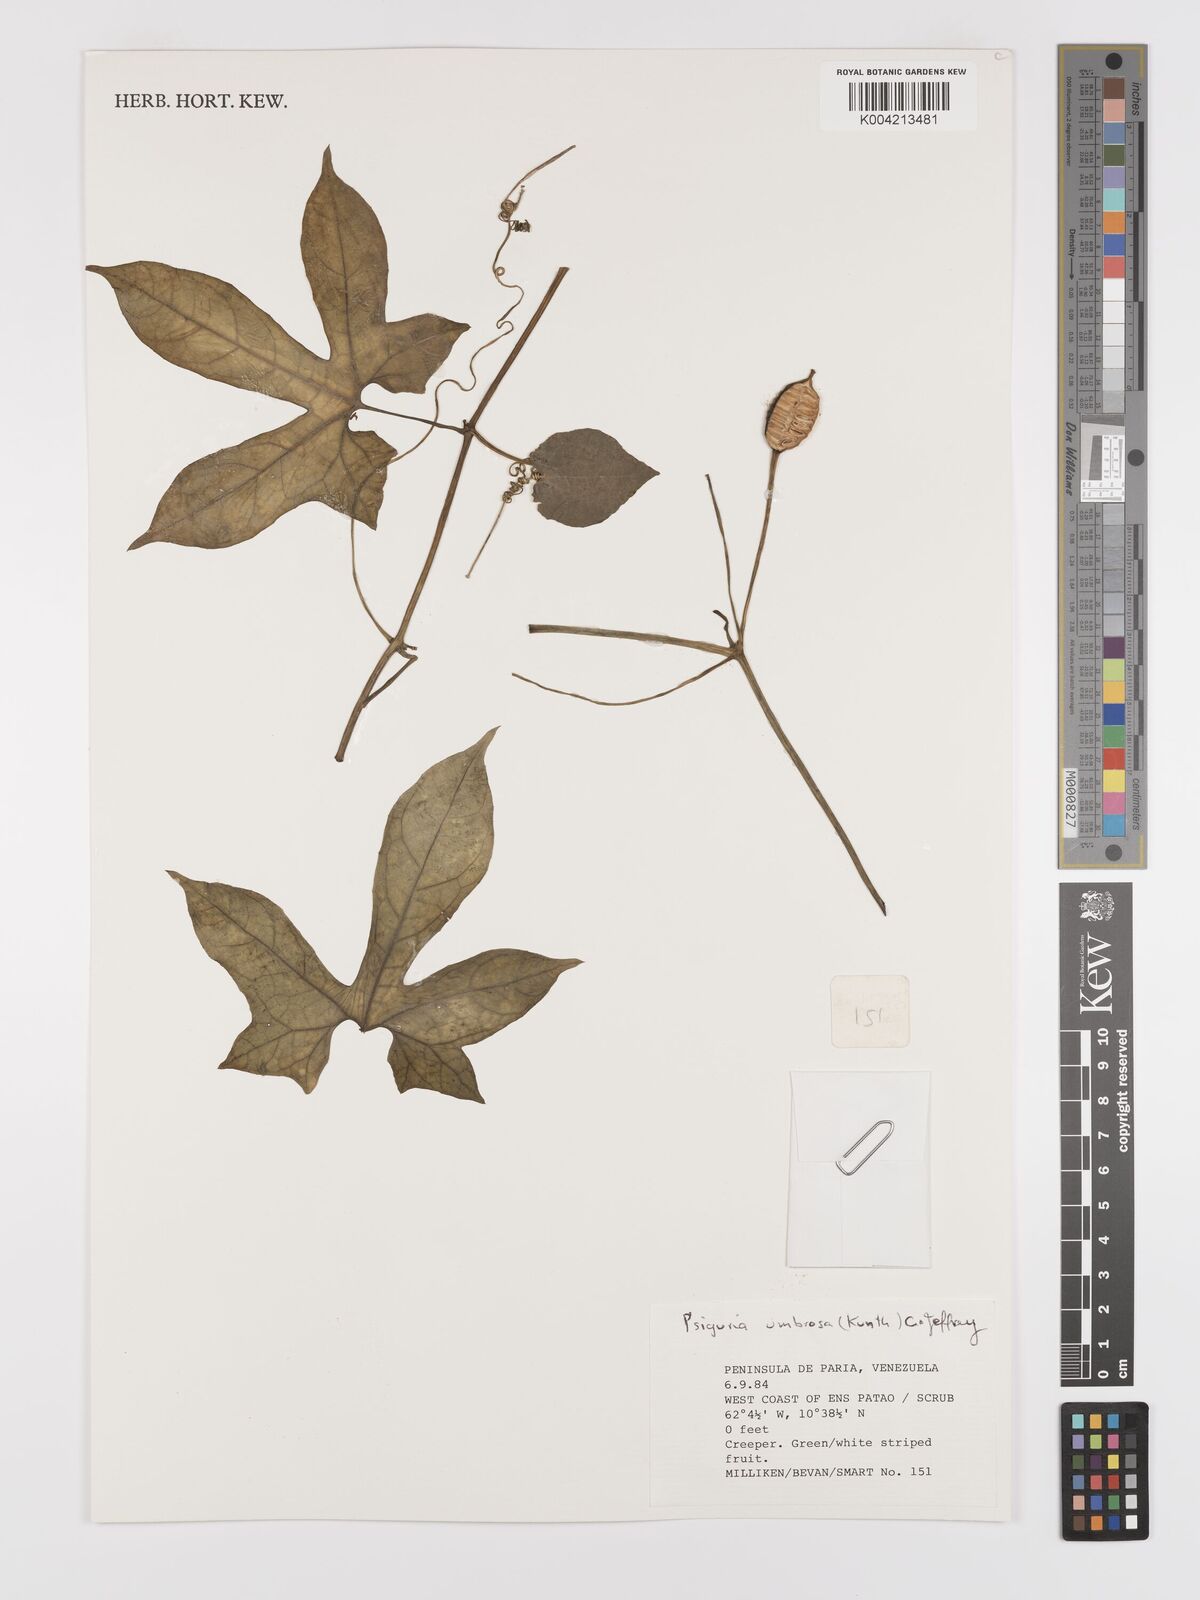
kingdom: Plantae
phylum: Tracheophyta
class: Magnoliopsida
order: Cucurbitales
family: Cucurbitaceae
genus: Psiguria
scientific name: Psiguria umbrosa
